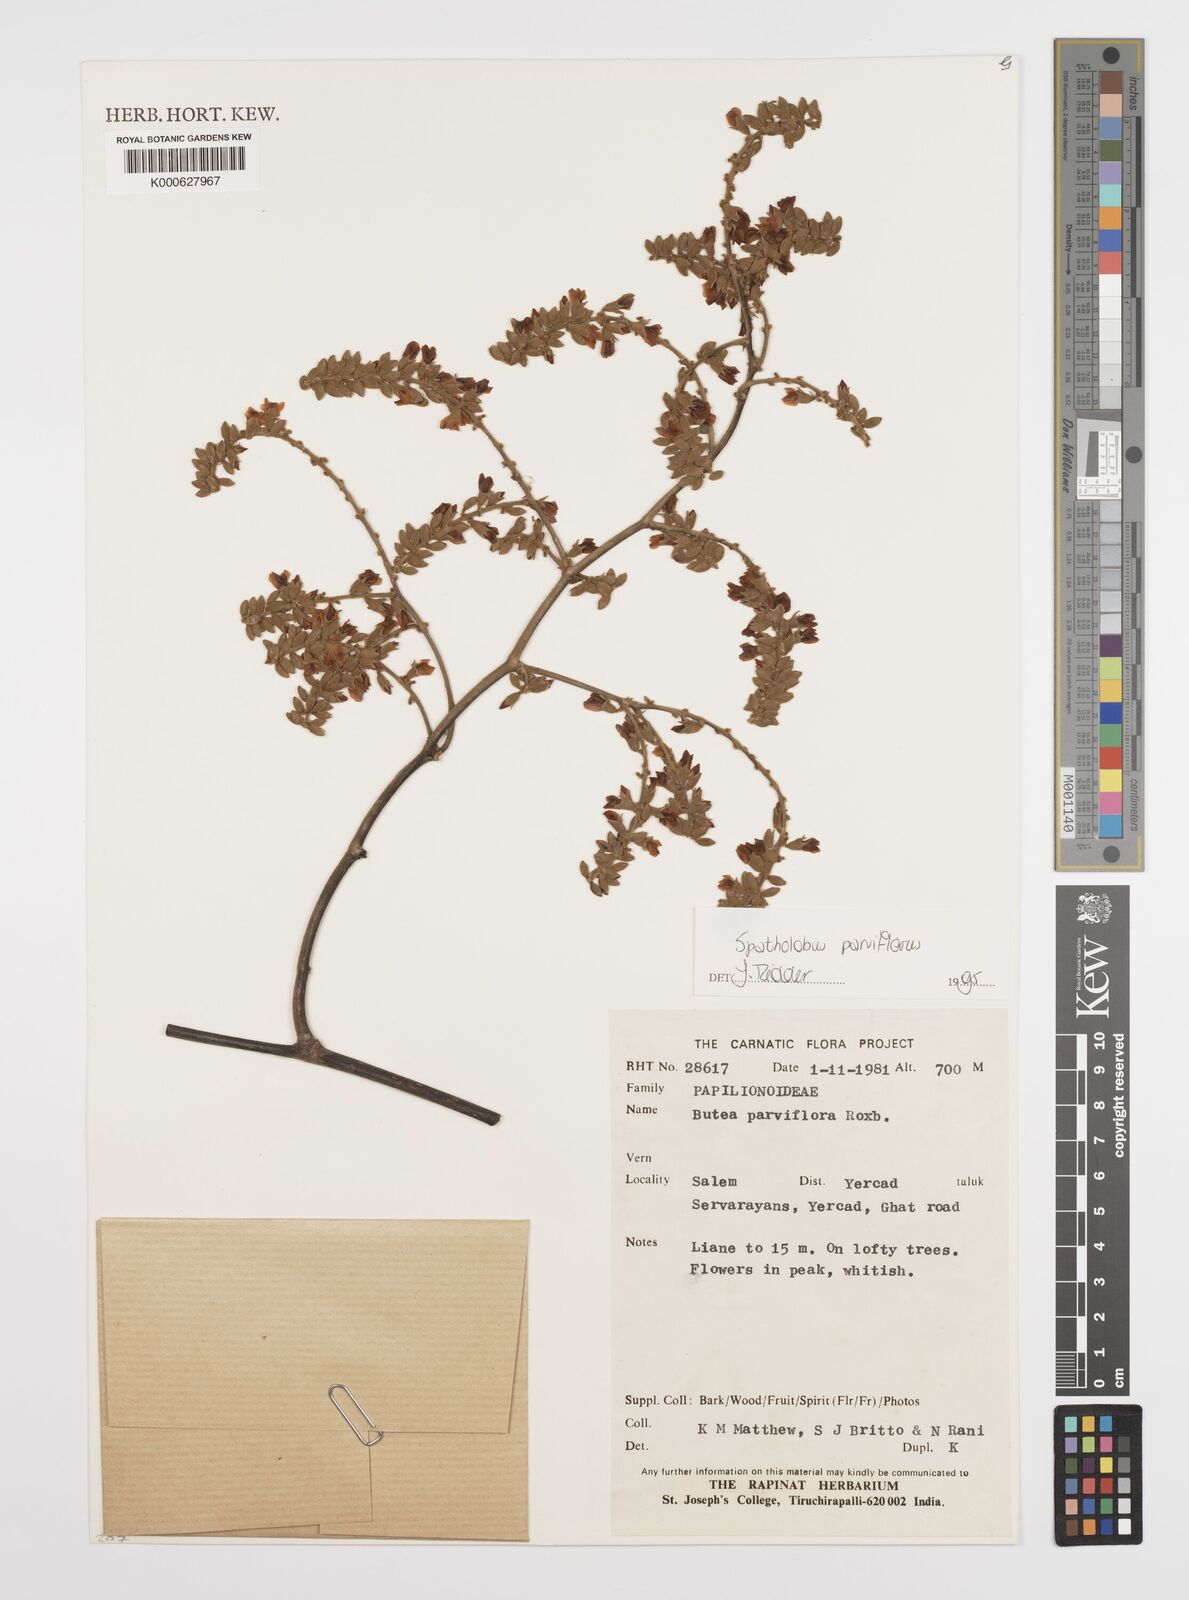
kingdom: Plantae
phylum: Tracheophyta
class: Magnoliopsida
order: Fabales
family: Fabaceae
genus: Spatholobus
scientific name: Spatholobus parviflorus
